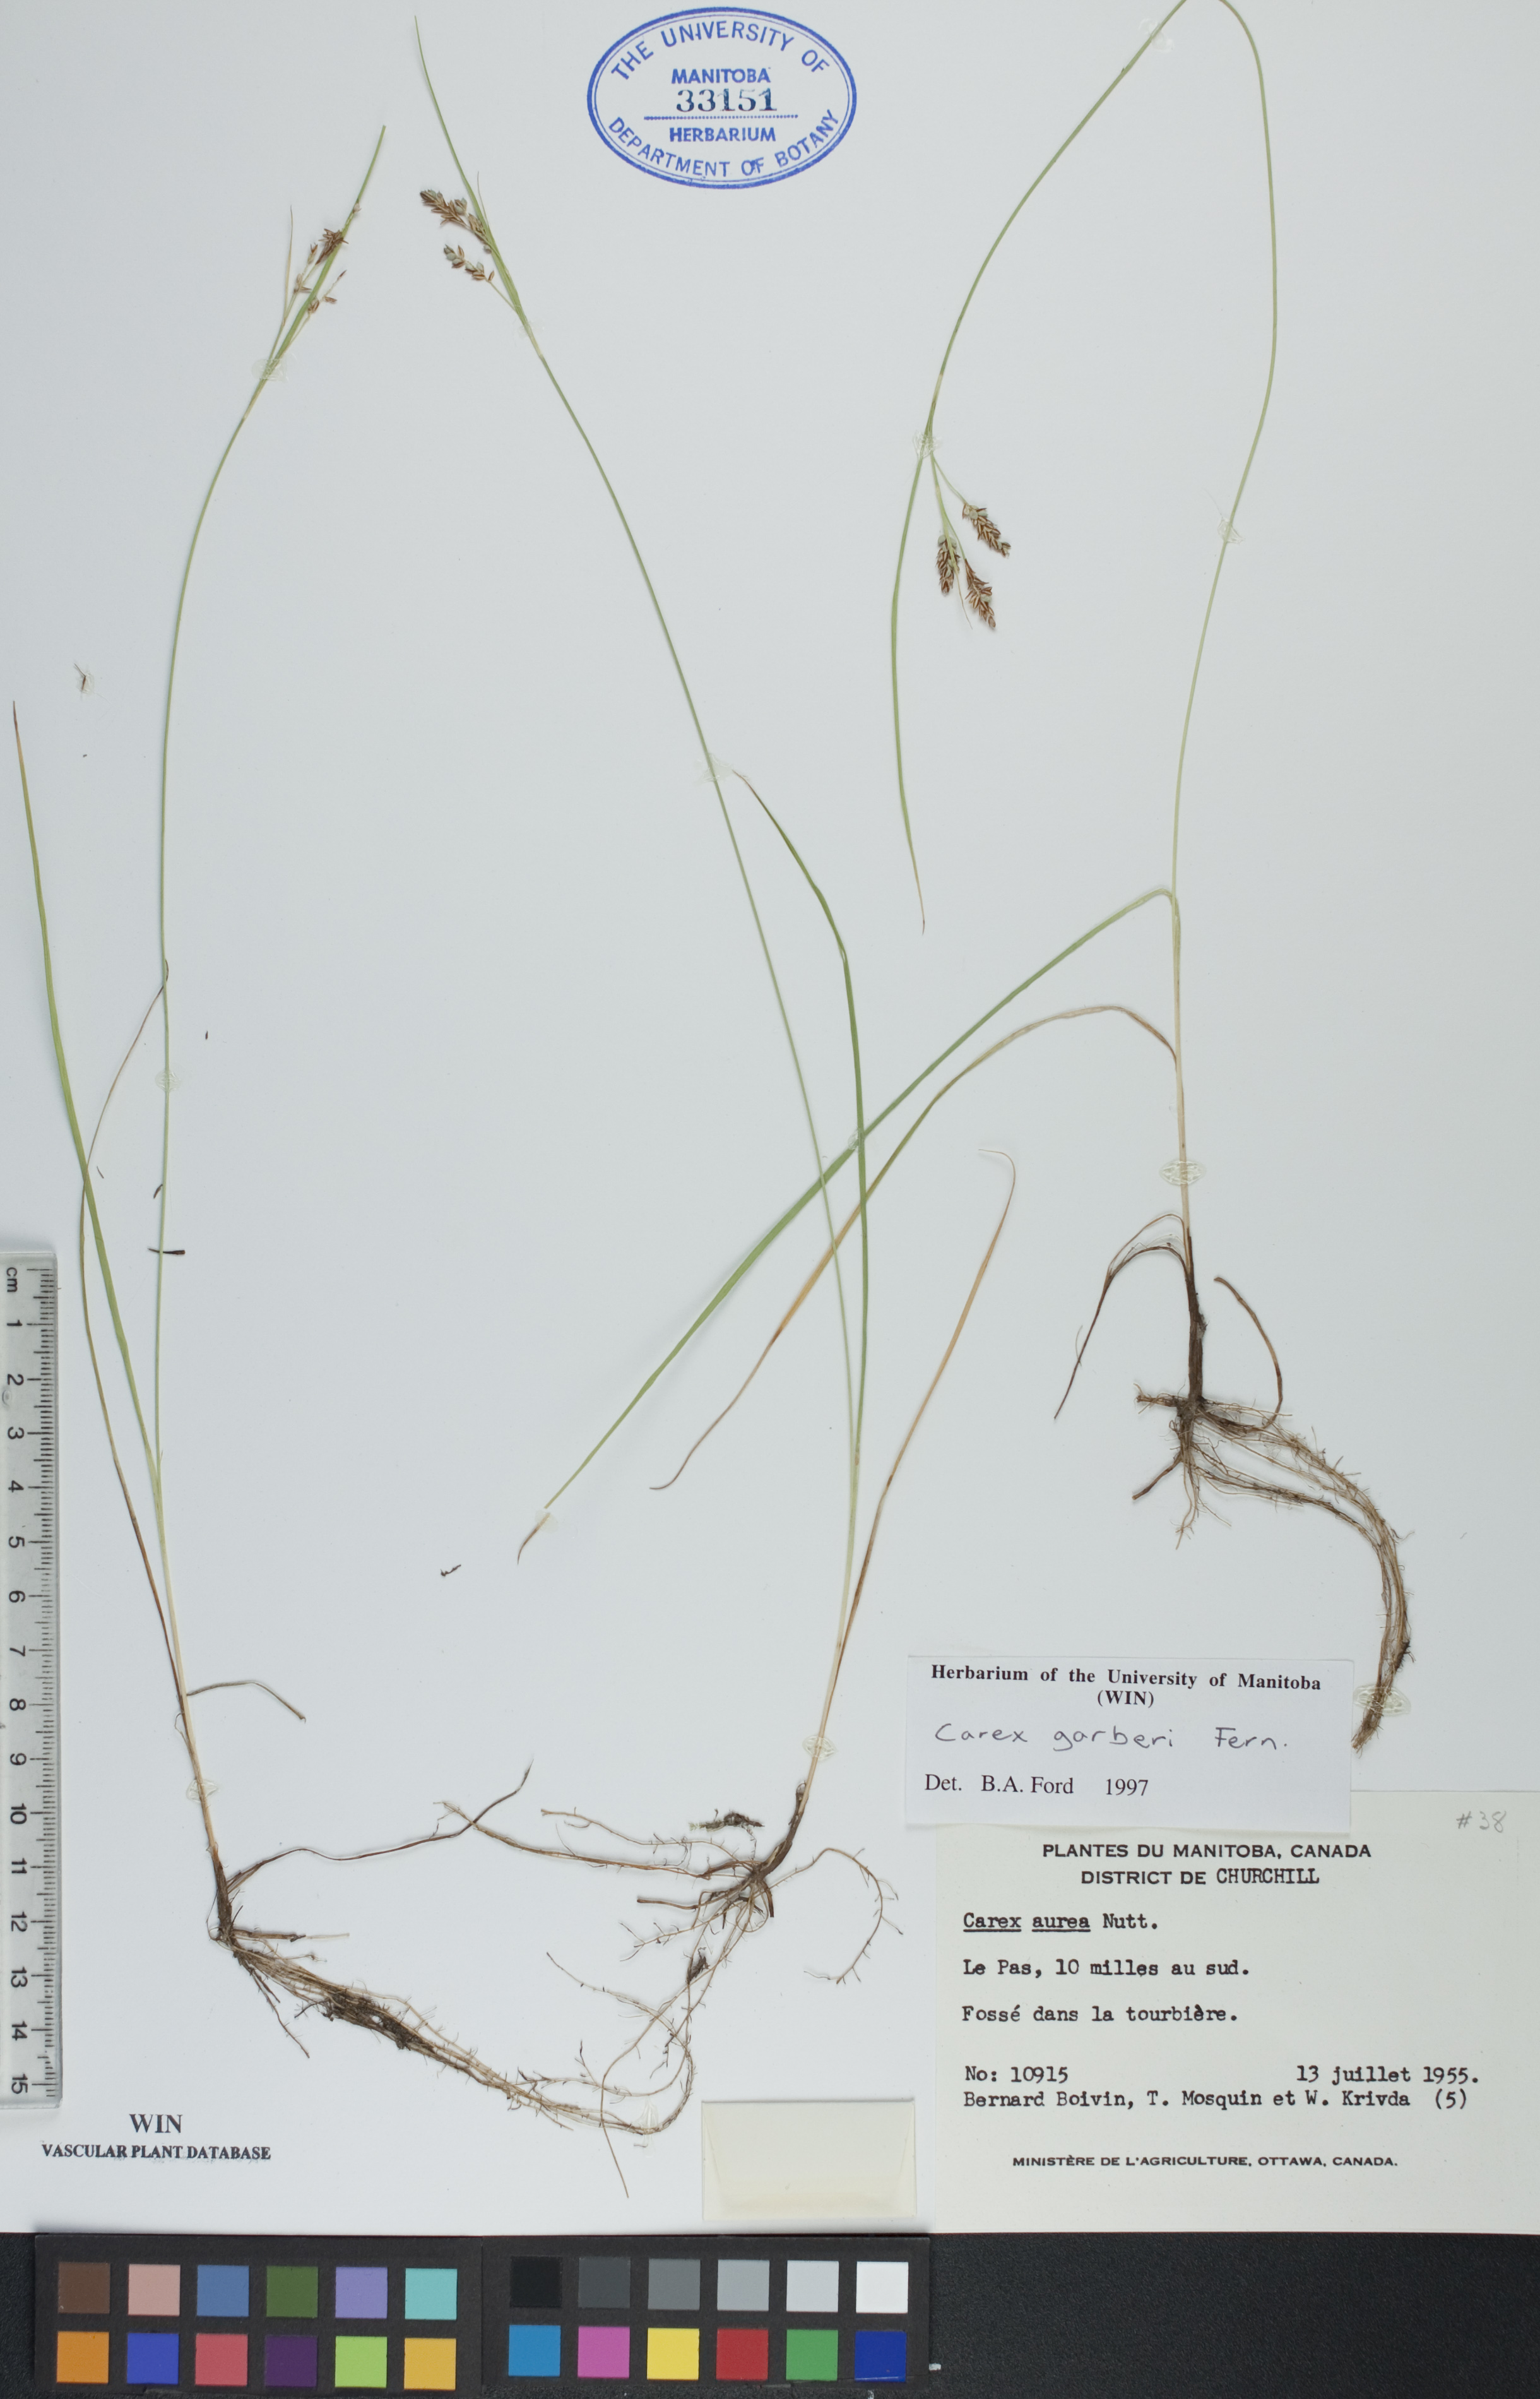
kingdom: Plantae
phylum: Tracheophyta
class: Liliopsida
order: Poales
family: Cyperaceae
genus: Carex
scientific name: Carex garberi
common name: Elk sedge
